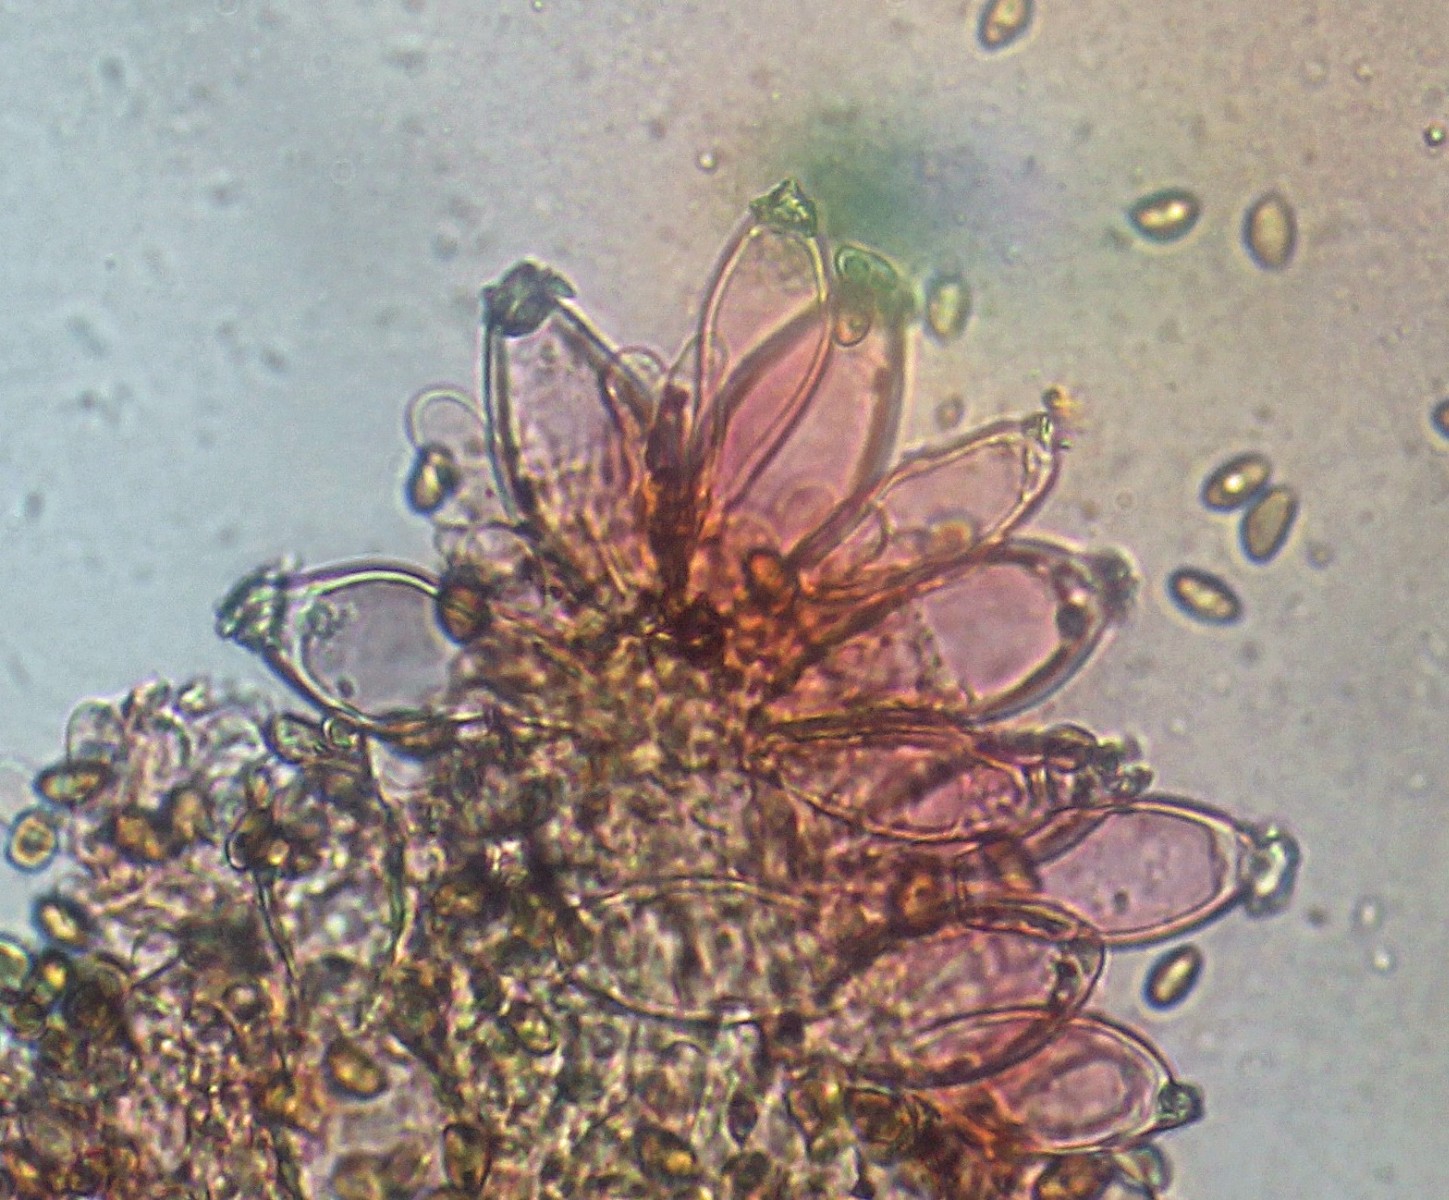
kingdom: Fungi
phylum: Basidiomycota
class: Agaricomycetes
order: Agaricales
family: Inocybaceae
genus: Inocybe
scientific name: Inocybe ochroalba
